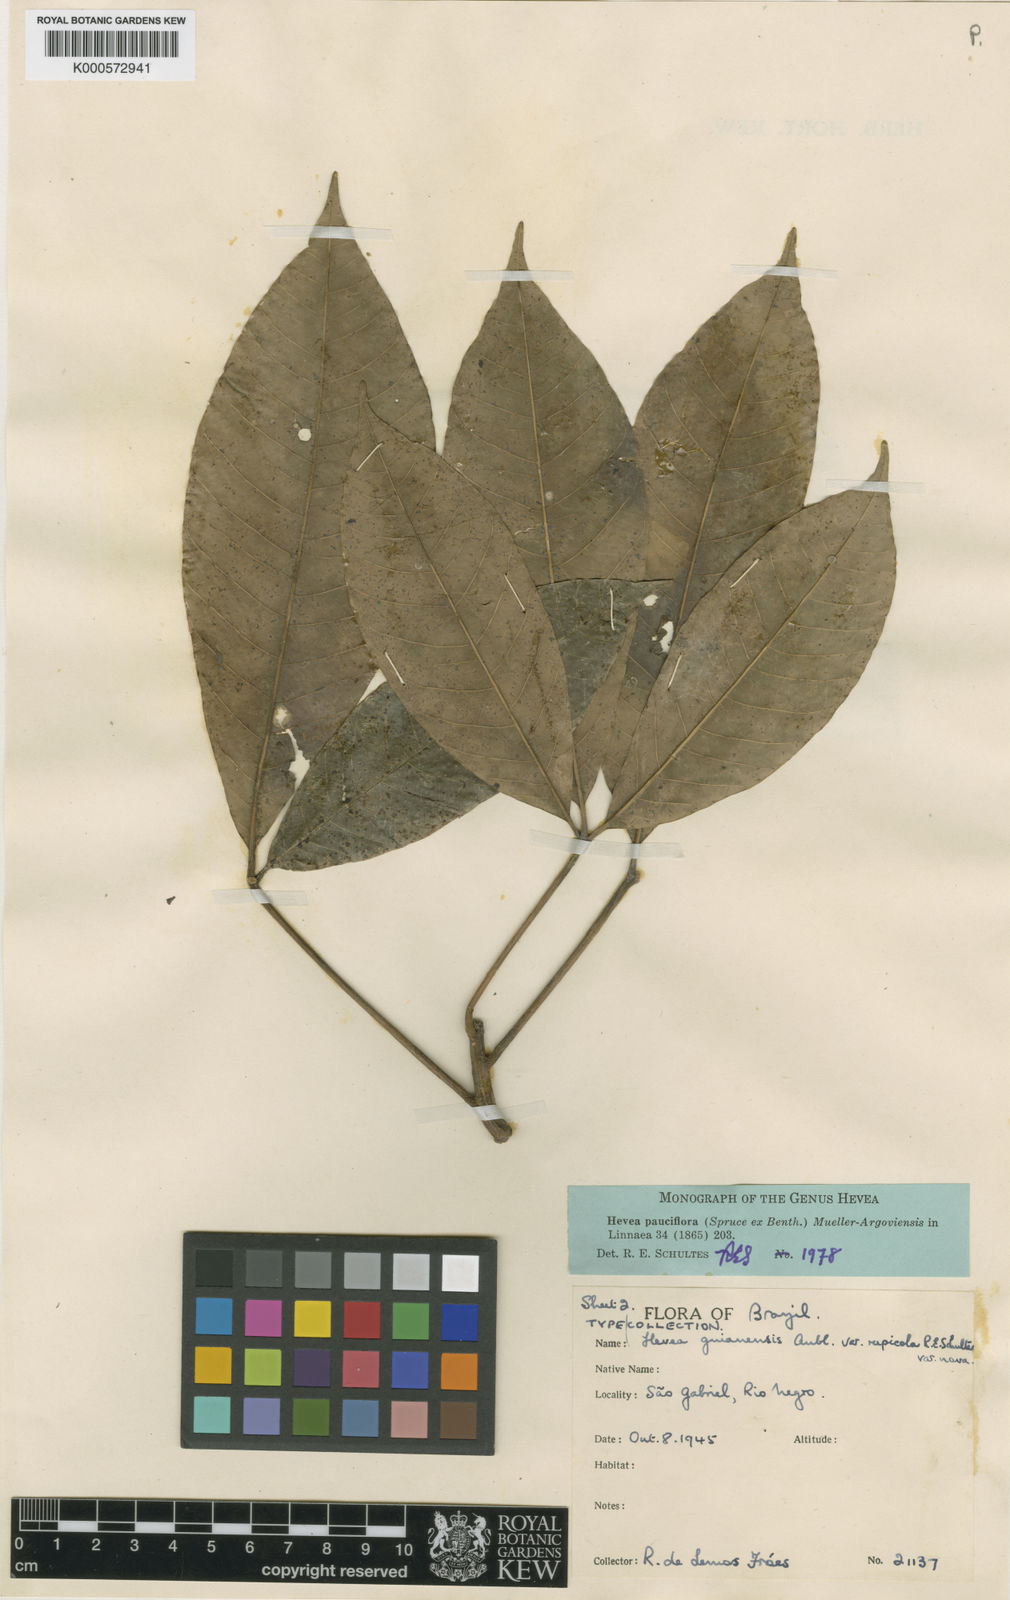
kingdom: Plantae
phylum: Tracheophyta
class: Magnoliopsida
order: Malpighiales
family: Euphorbiaceae
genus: Hevea
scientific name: Hevea
